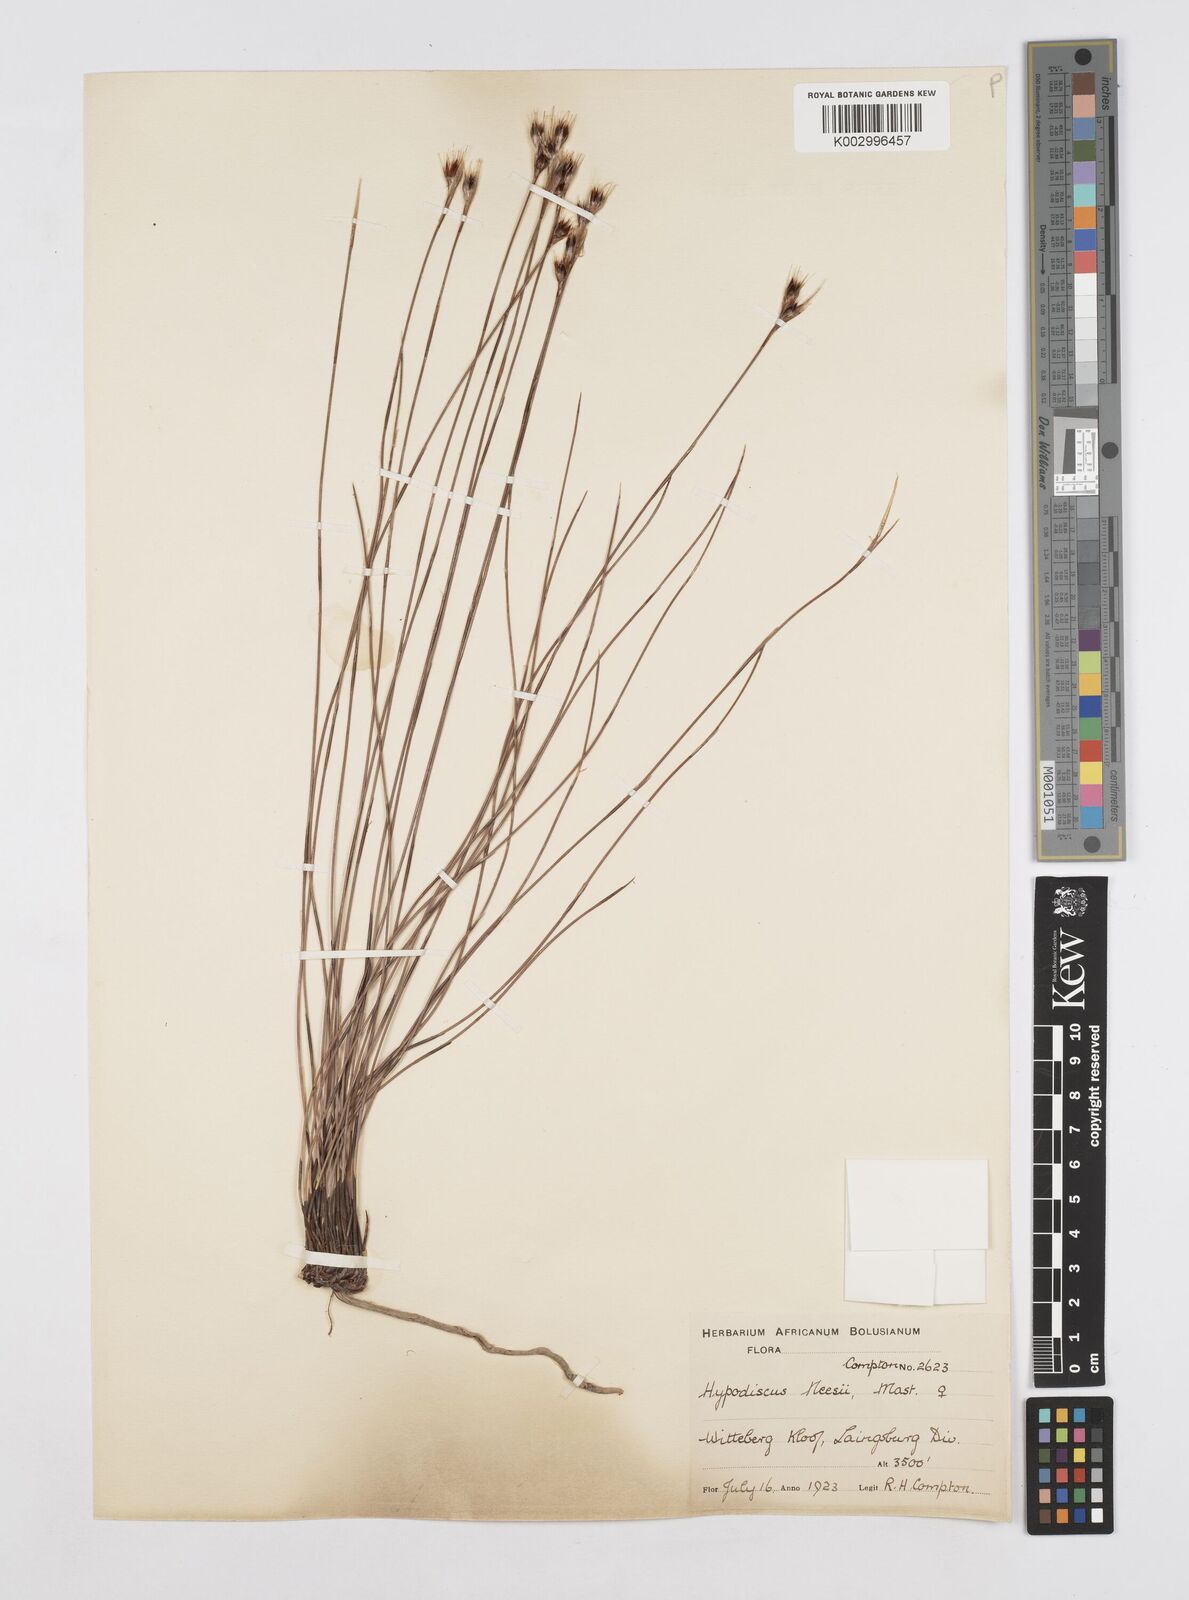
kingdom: Plantae
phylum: Tracheophyta
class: Liliopsida
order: Poales
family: Restionaceae
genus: Hypodiscus
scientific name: Hypodiscus neesii
